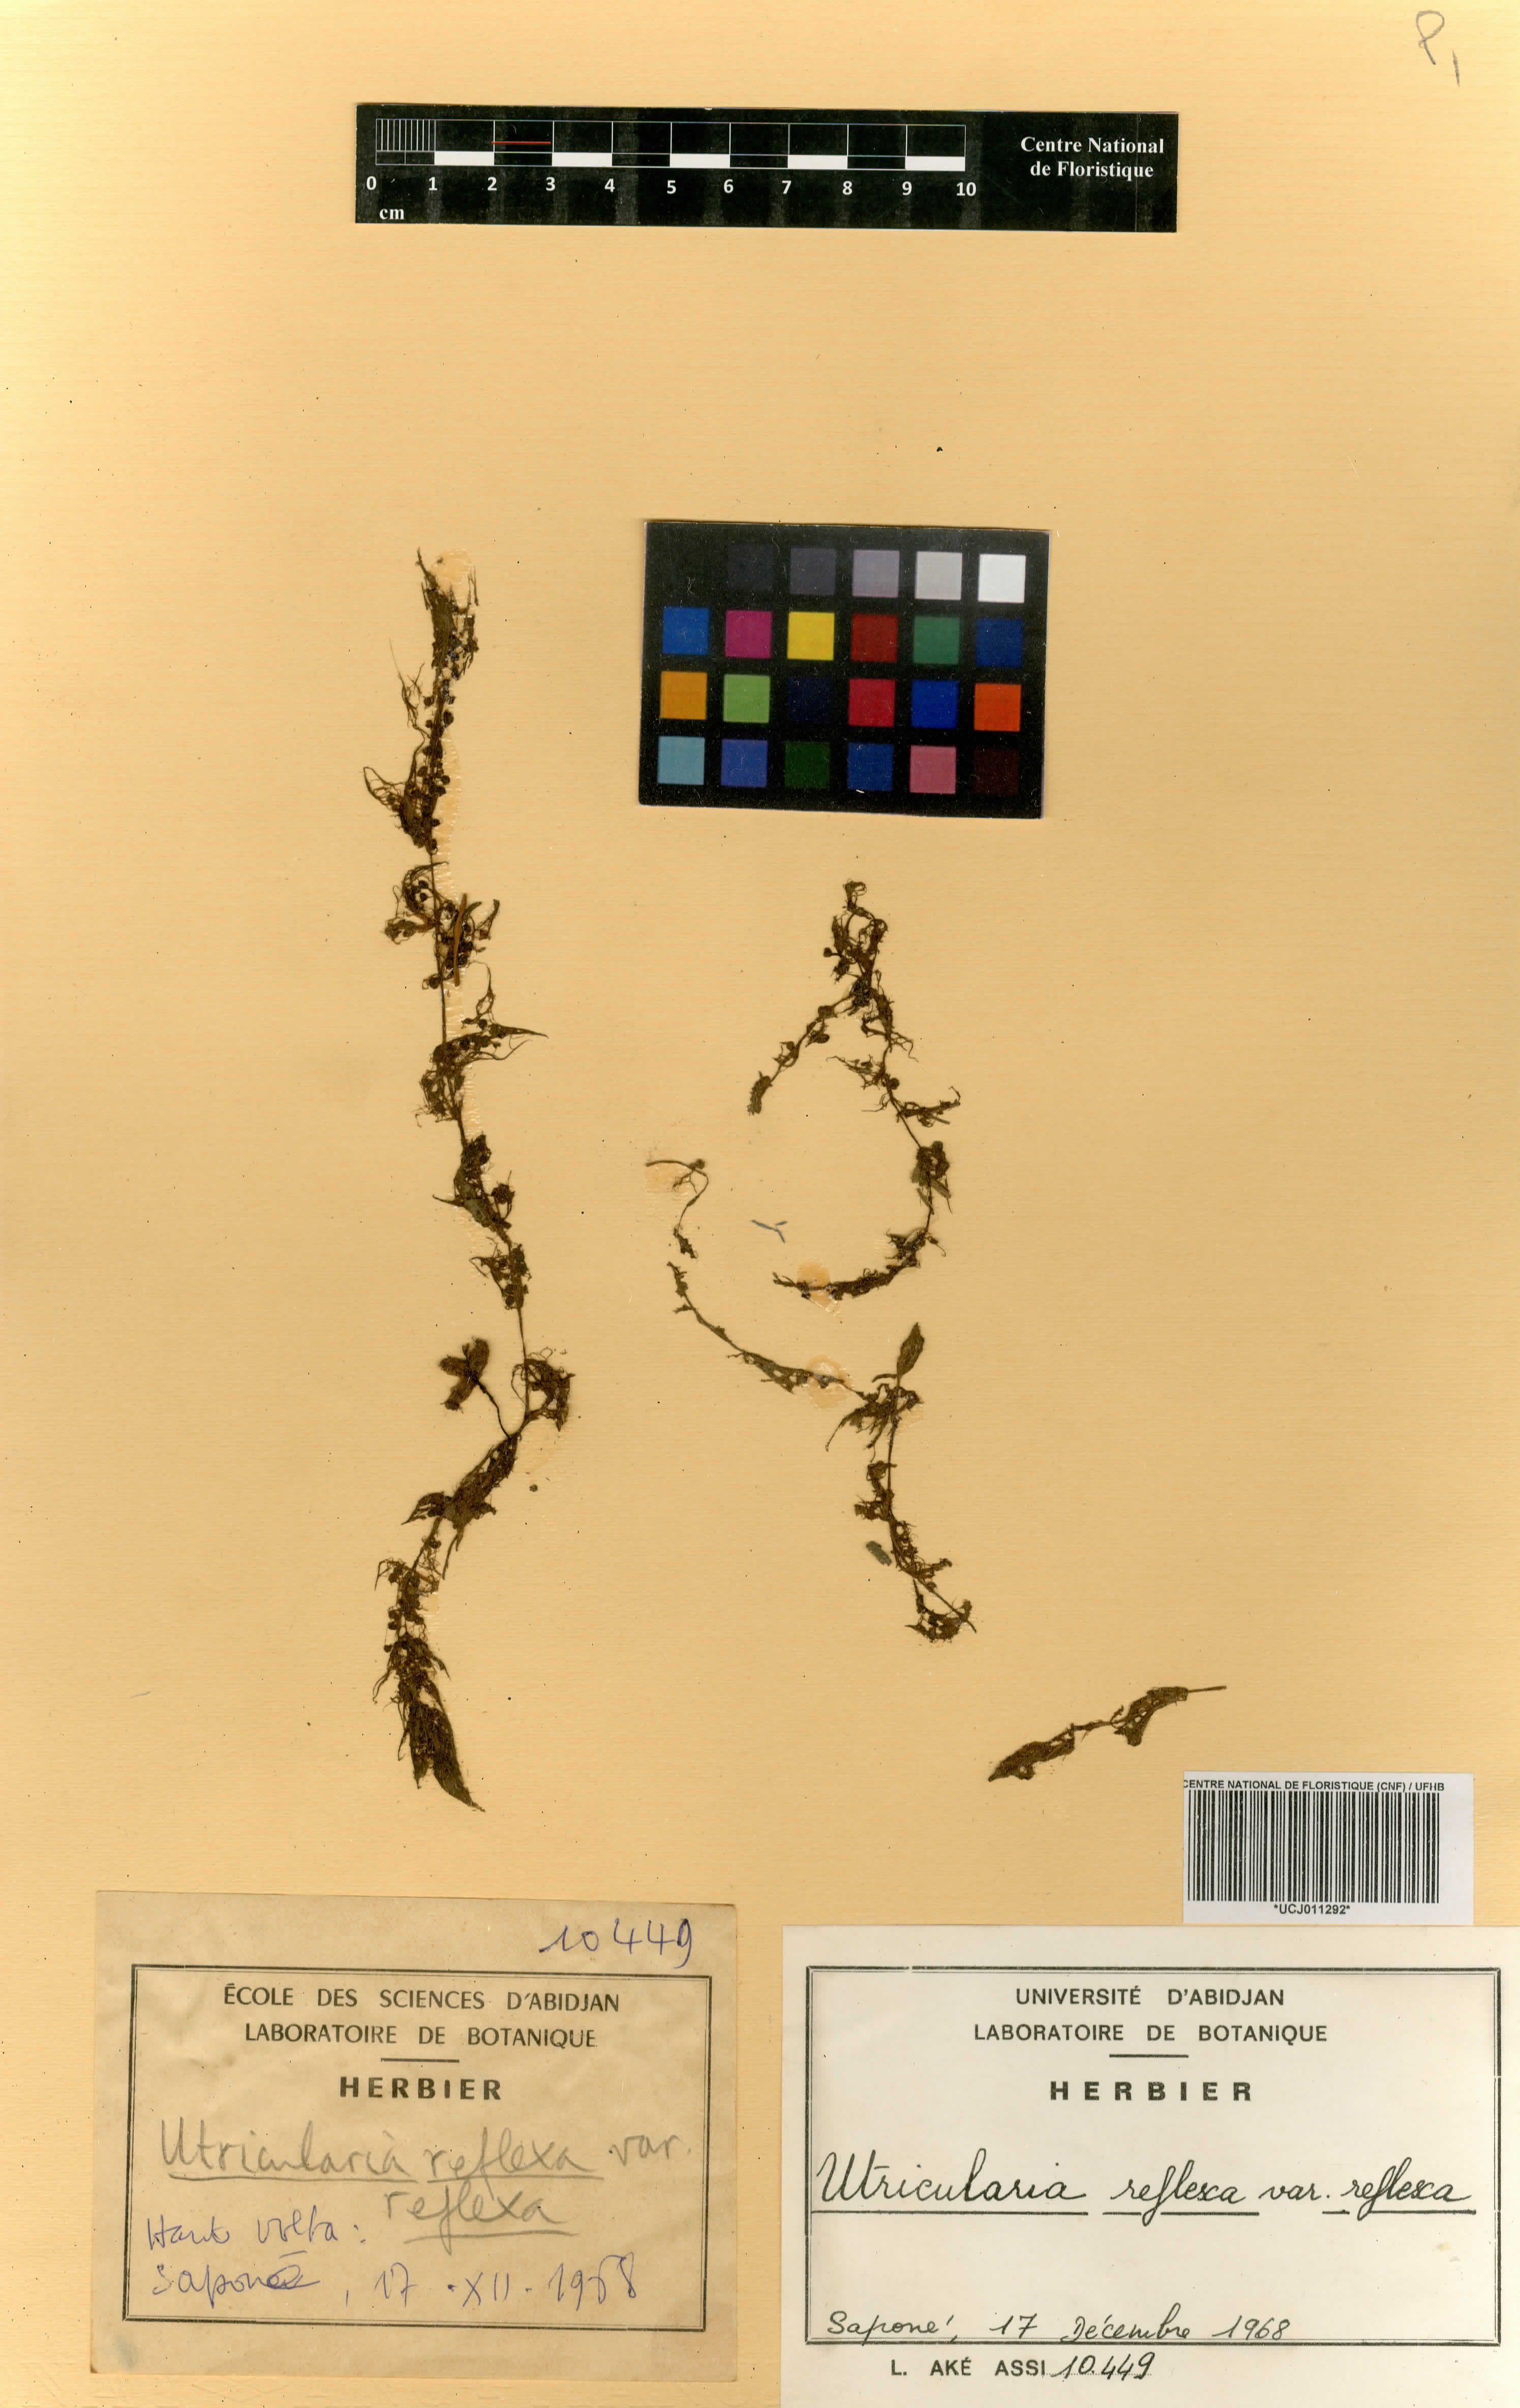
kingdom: Plantae
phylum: Tracheophyta
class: Magnoliopsida
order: Lamiales
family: Lentibulariaceae
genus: Utricularia
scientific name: Utricularia reflexa
